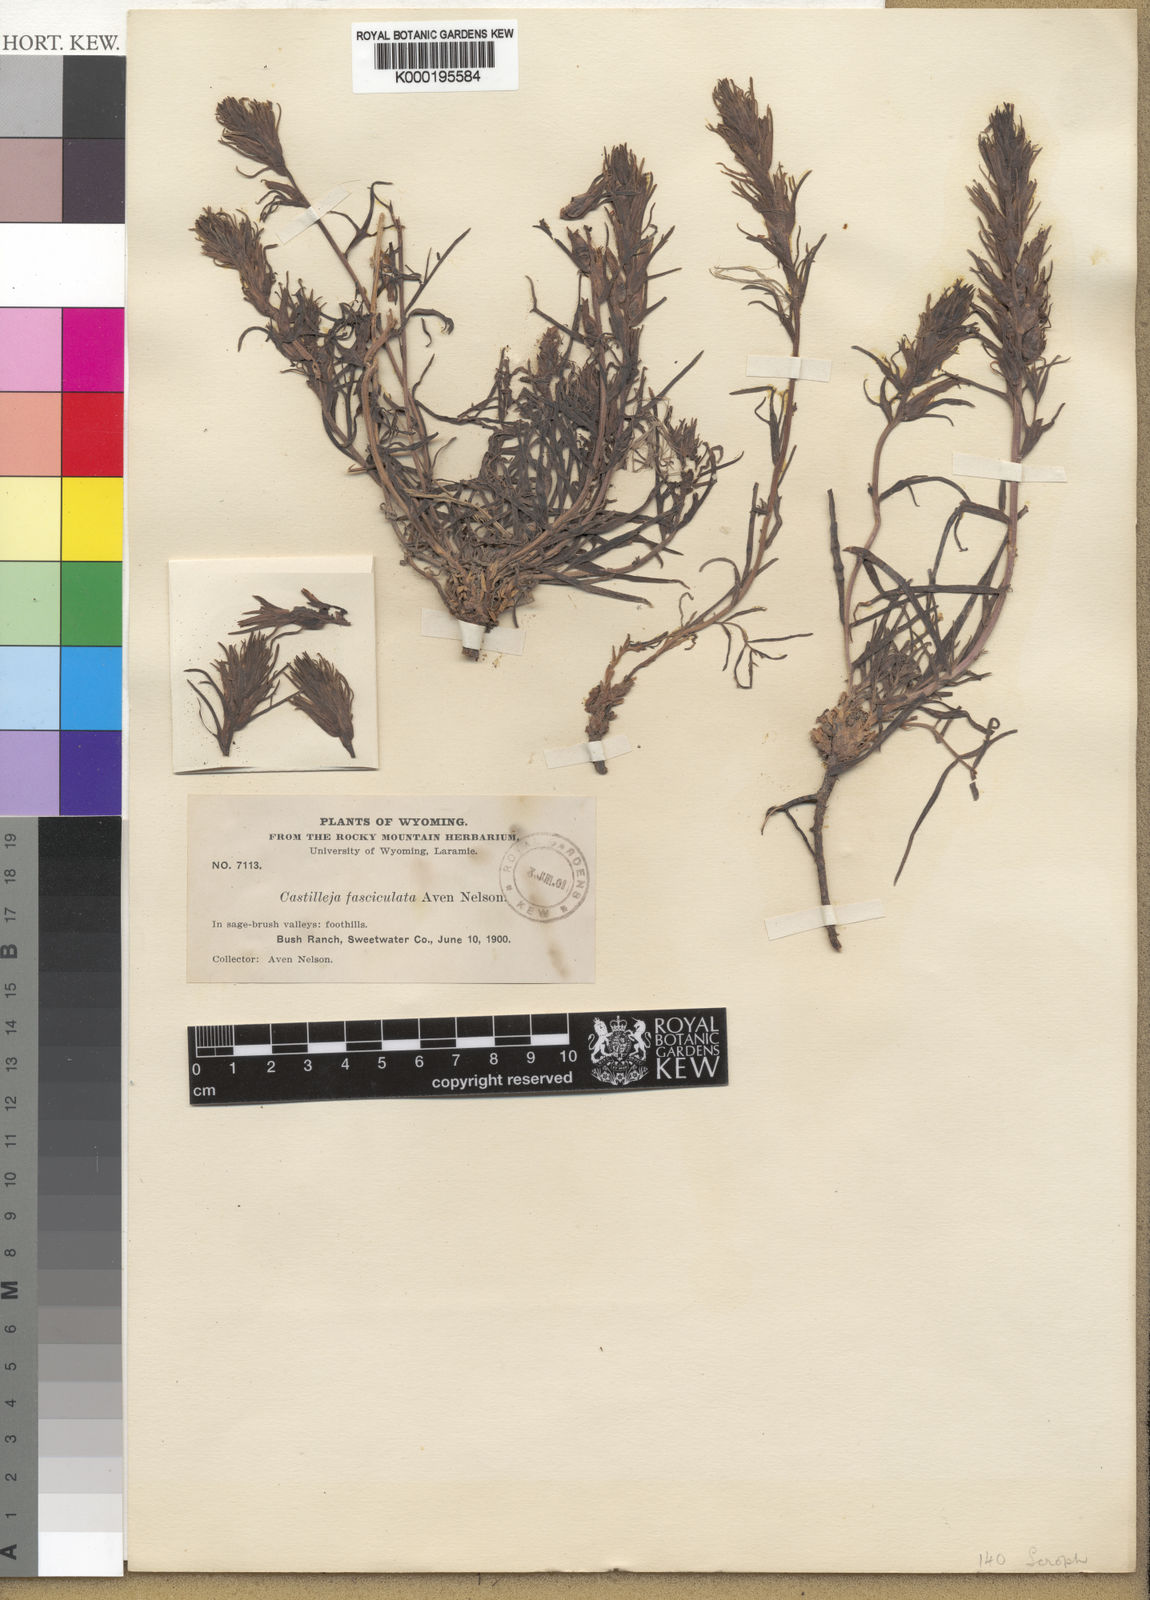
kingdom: Plantae
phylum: Tracheophyta
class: Magnoliopsida
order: Lamiales
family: Orobanchaceae
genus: Castilleja
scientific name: Castilleja pallescens
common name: Pale paintbrush
